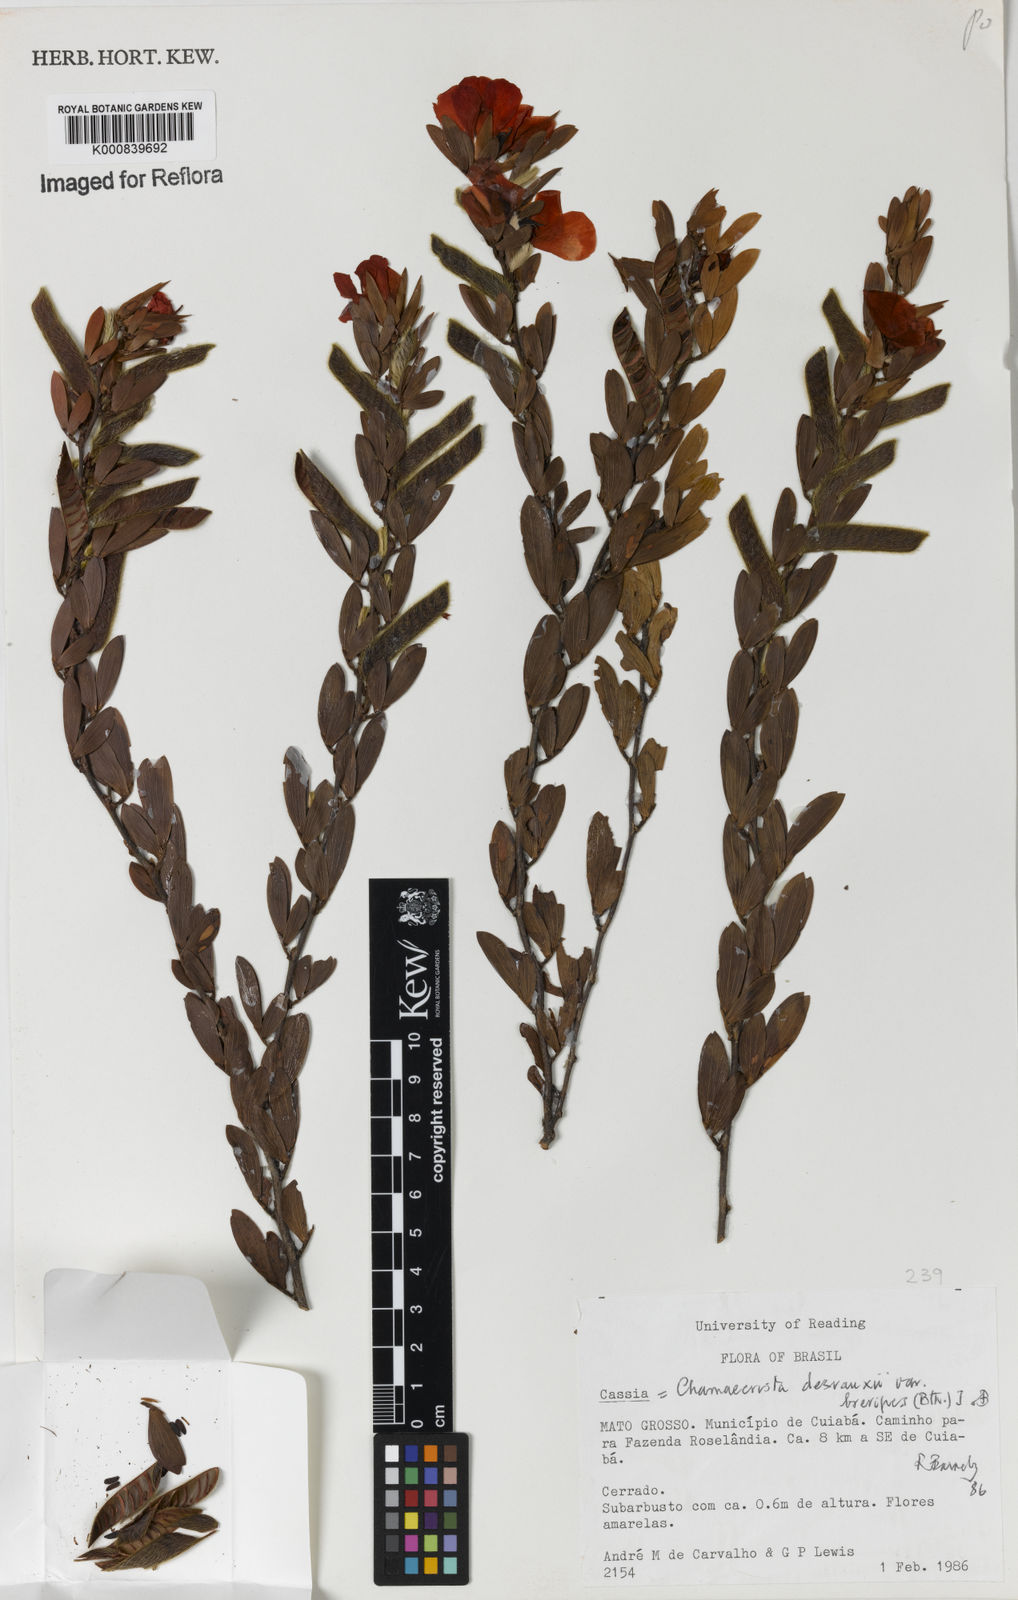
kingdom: Plantae
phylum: Tracheophyta
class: Magnoliopsida
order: Fabales
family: Fabaceae
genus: Chamaecrista
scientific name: Chamaecrista desvauxii
